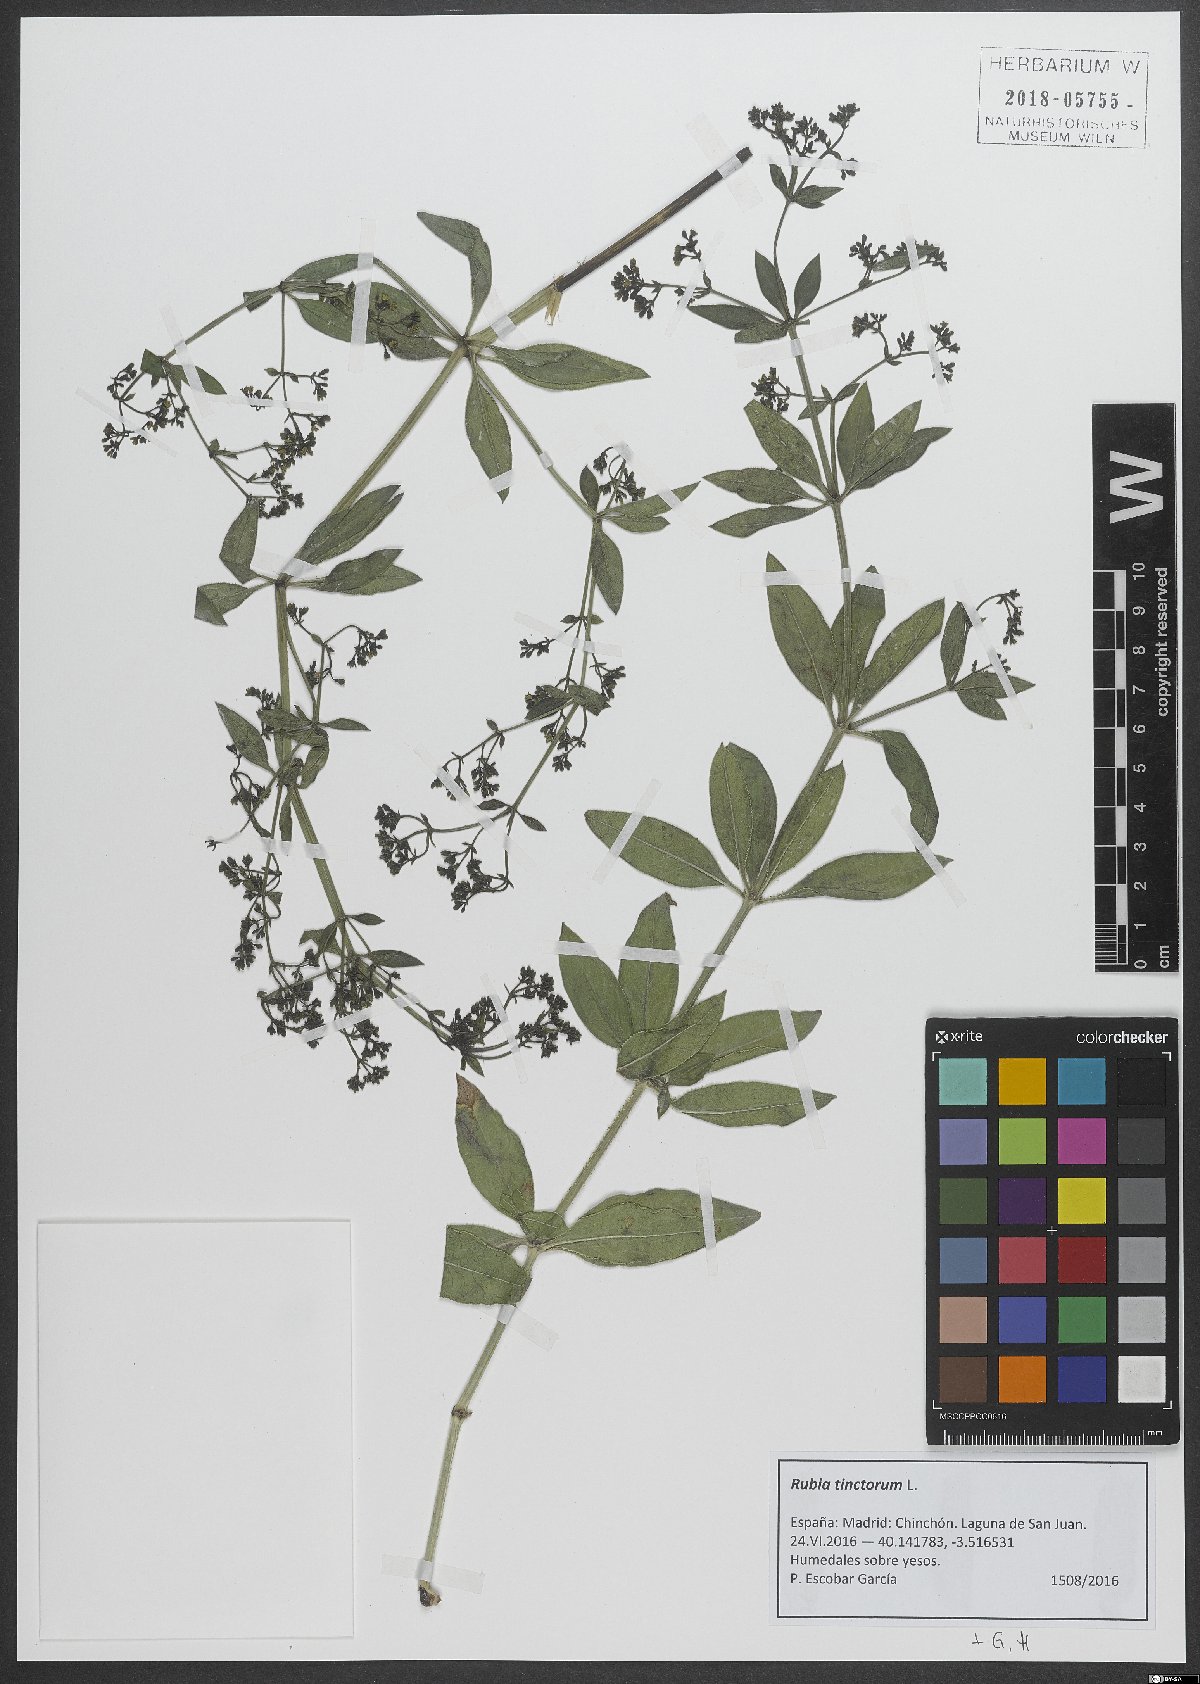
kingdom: Plantae
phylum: Tracheophyta
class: Magnoliopsida
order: Gentianales
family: Rubiaceae
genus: Rubia
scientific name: Rubia tinctorum
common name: Dyer's madder
